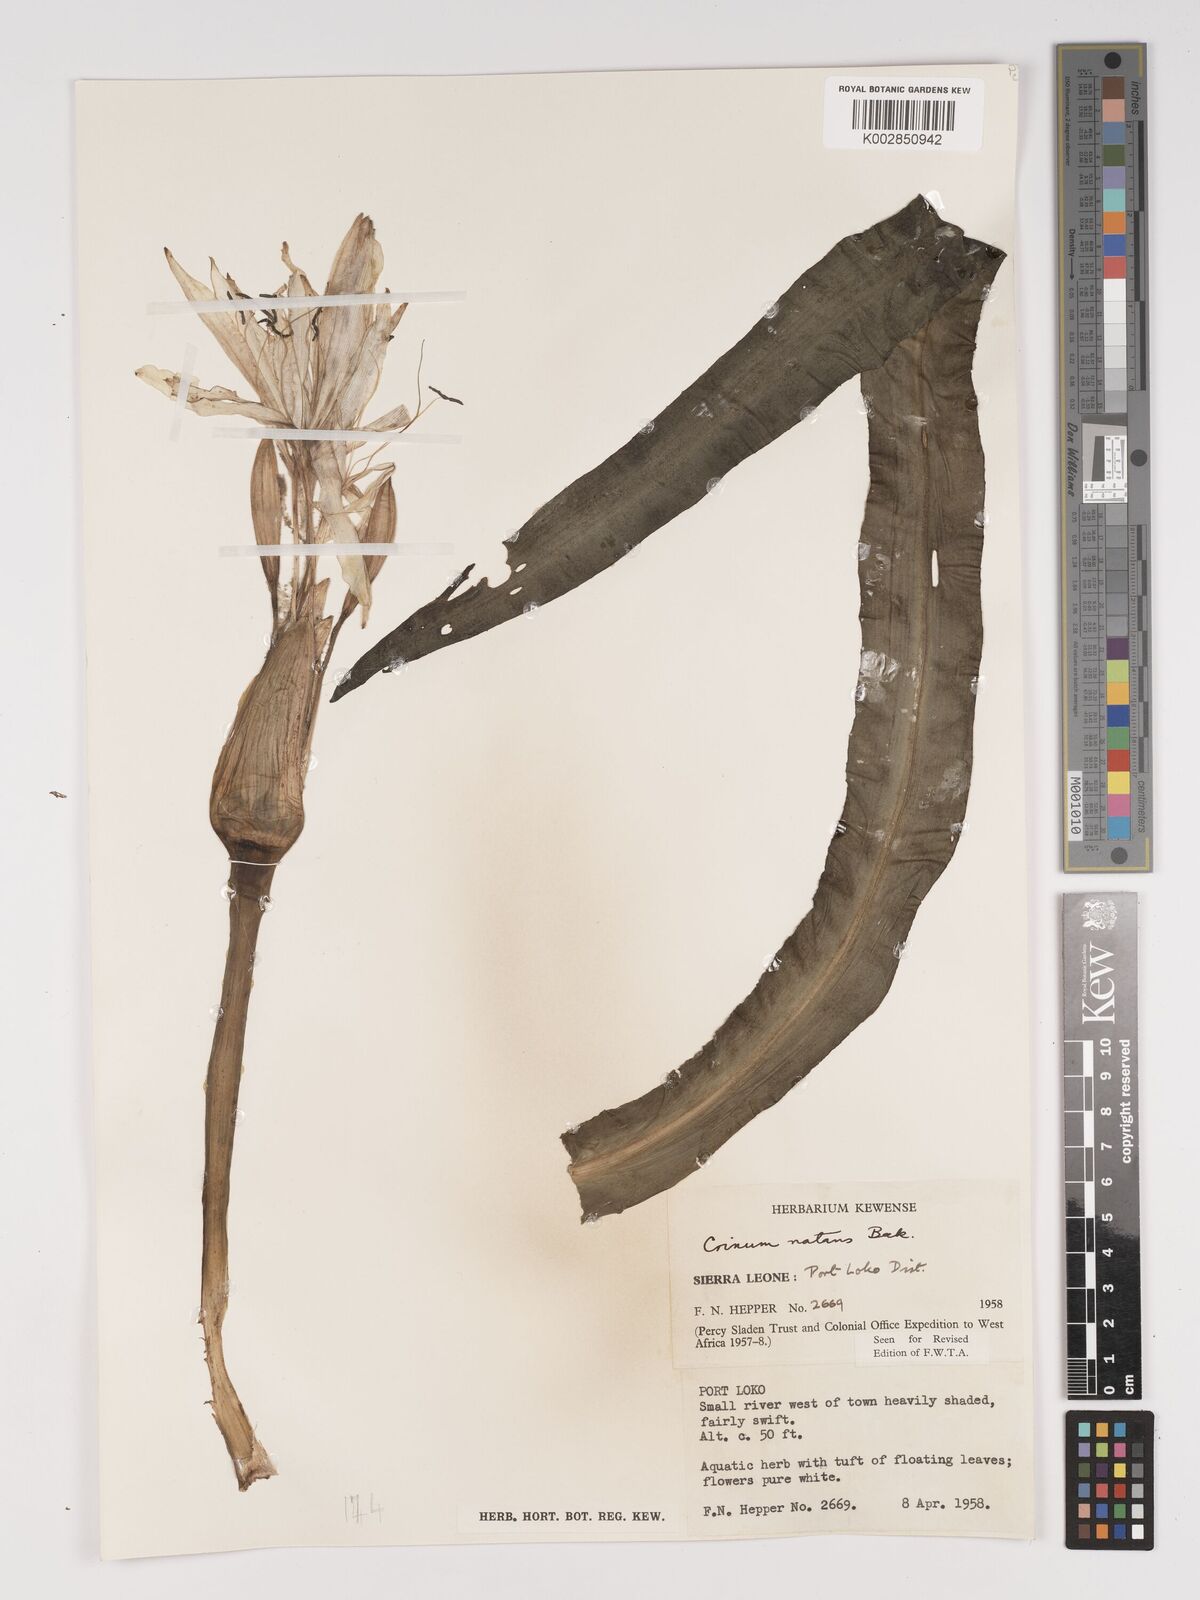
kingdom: Plantae
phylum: Tracheophyta
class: Liliopsida
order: Asparagales
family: Amaryllidaceae
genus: Crinum
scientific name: Crinum moorei
